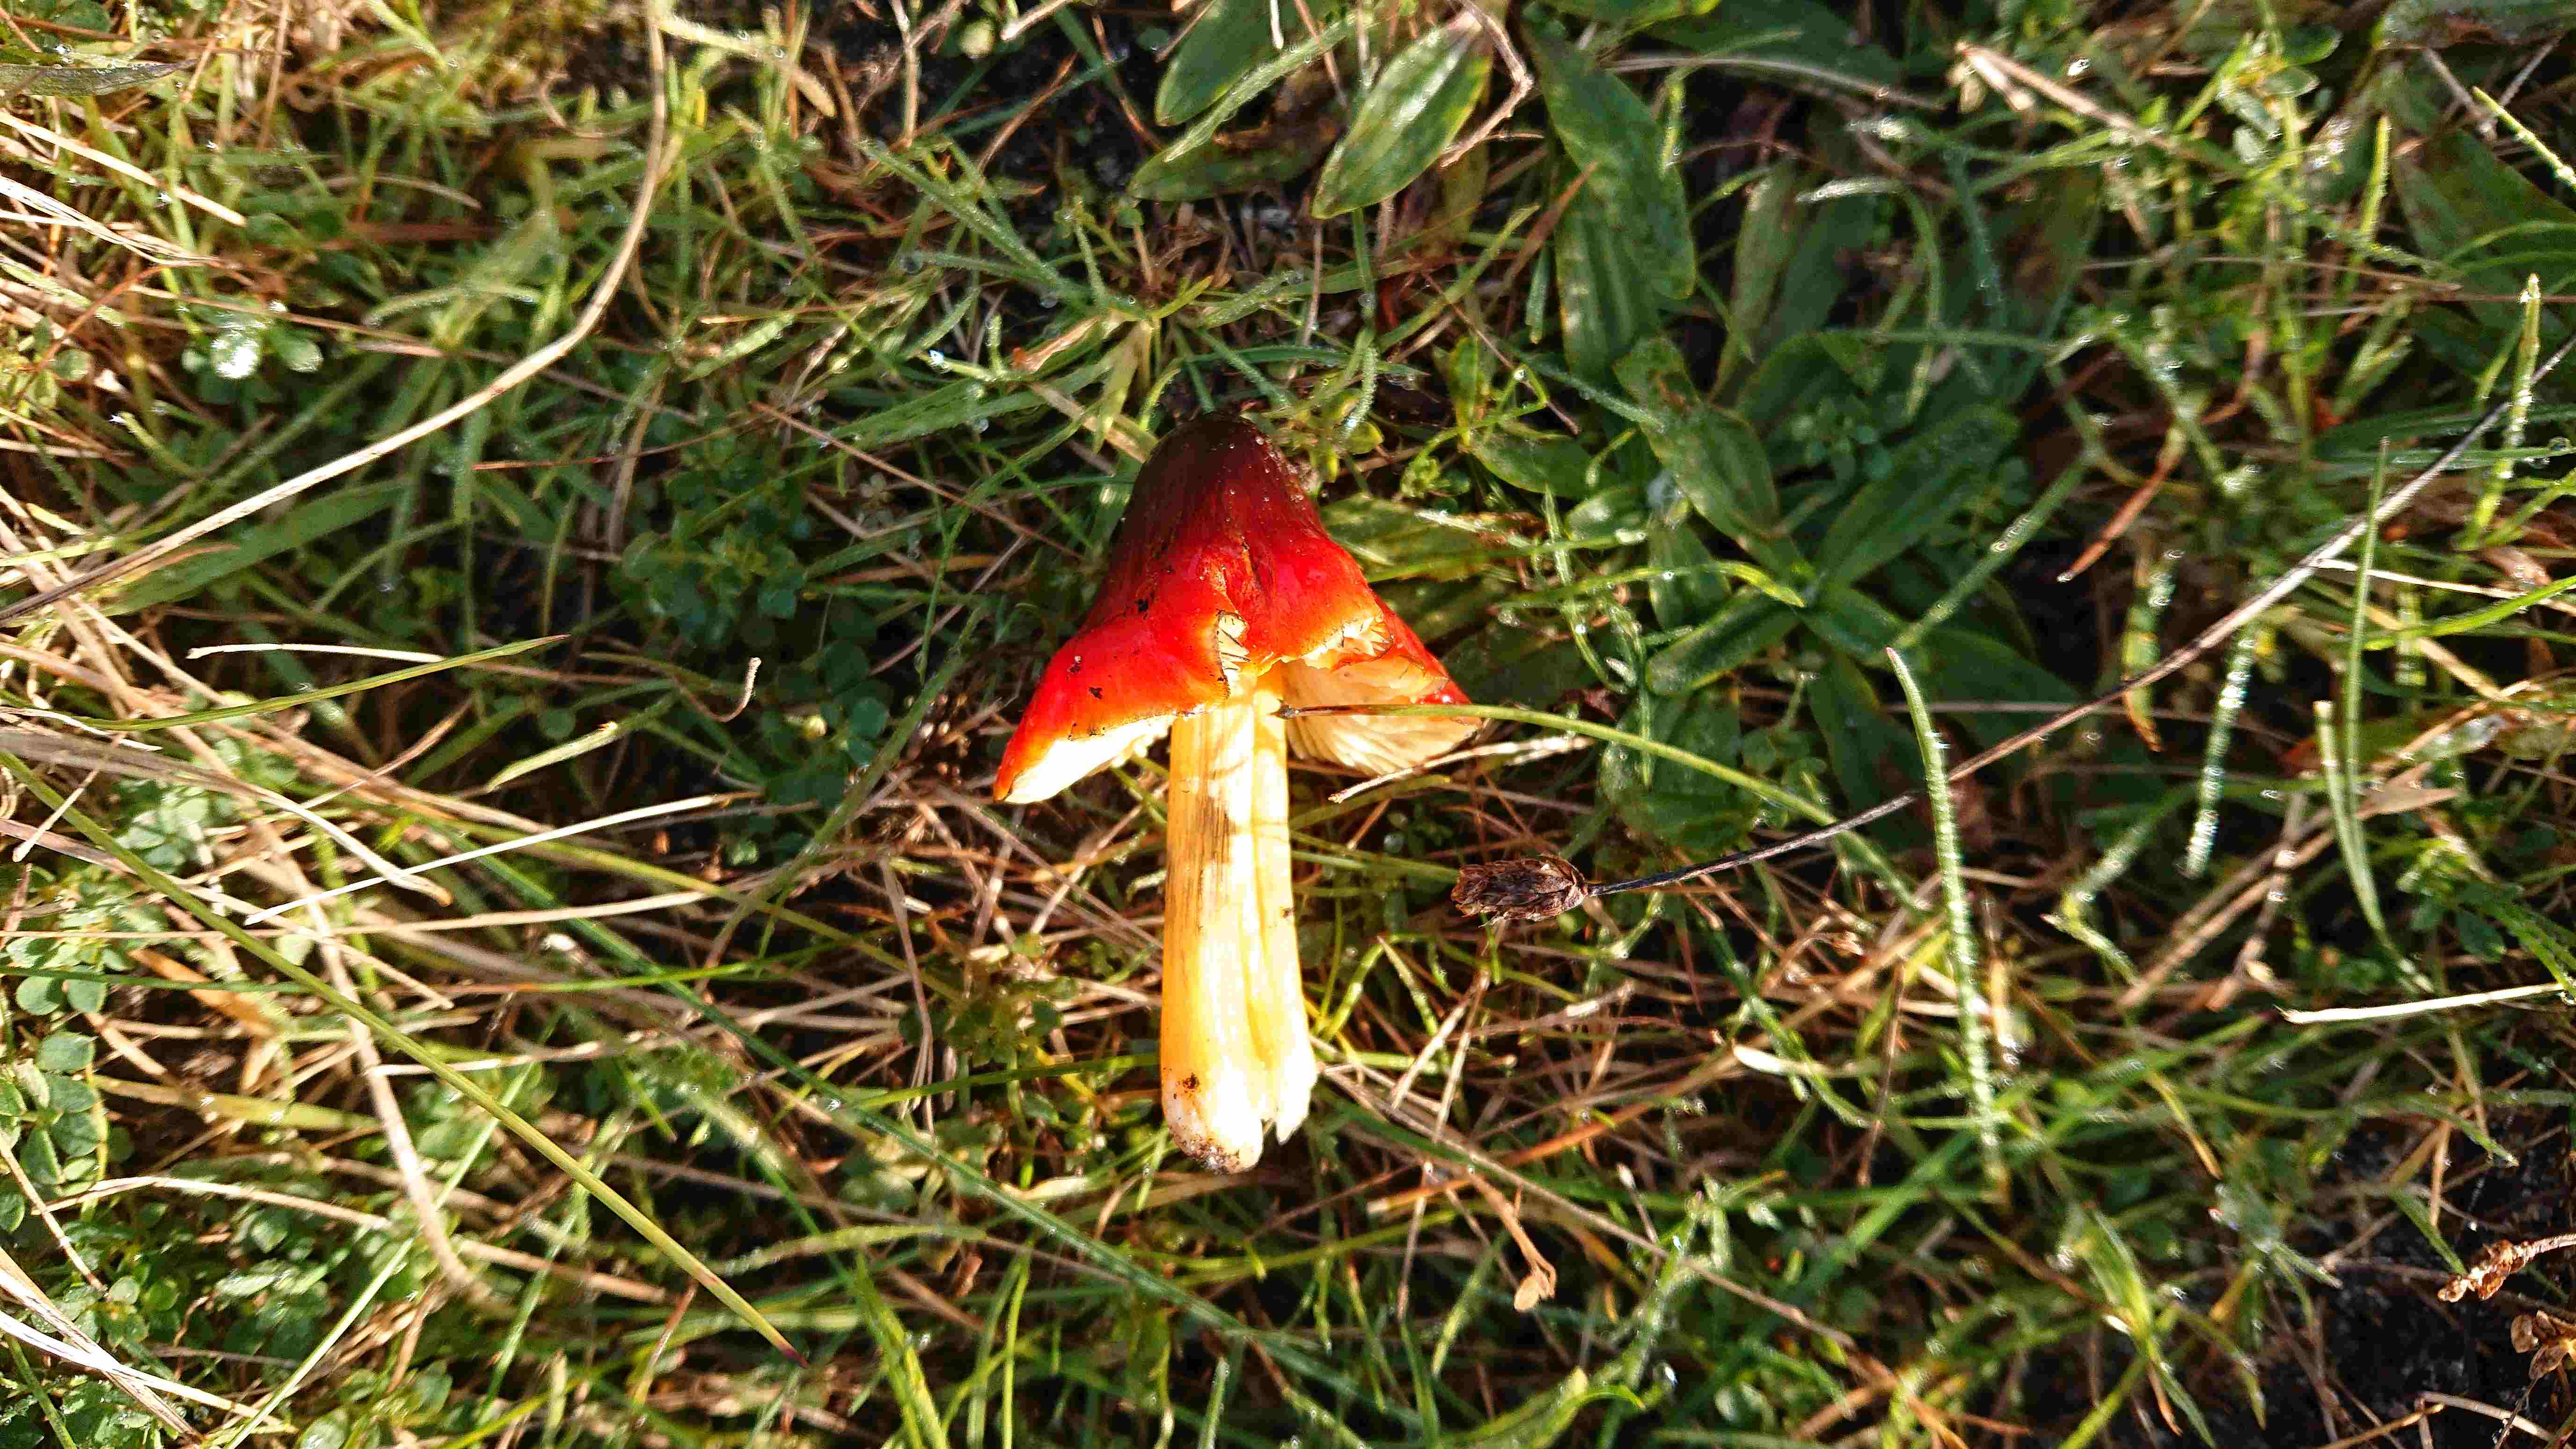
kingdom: Fungi
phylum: Basidiomycota
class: Agaricomycetes
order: Agaricales
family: Hygrophoraceae
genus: Hygrocybe
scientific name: Hygrocybe conica
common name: kegle-vokshat
